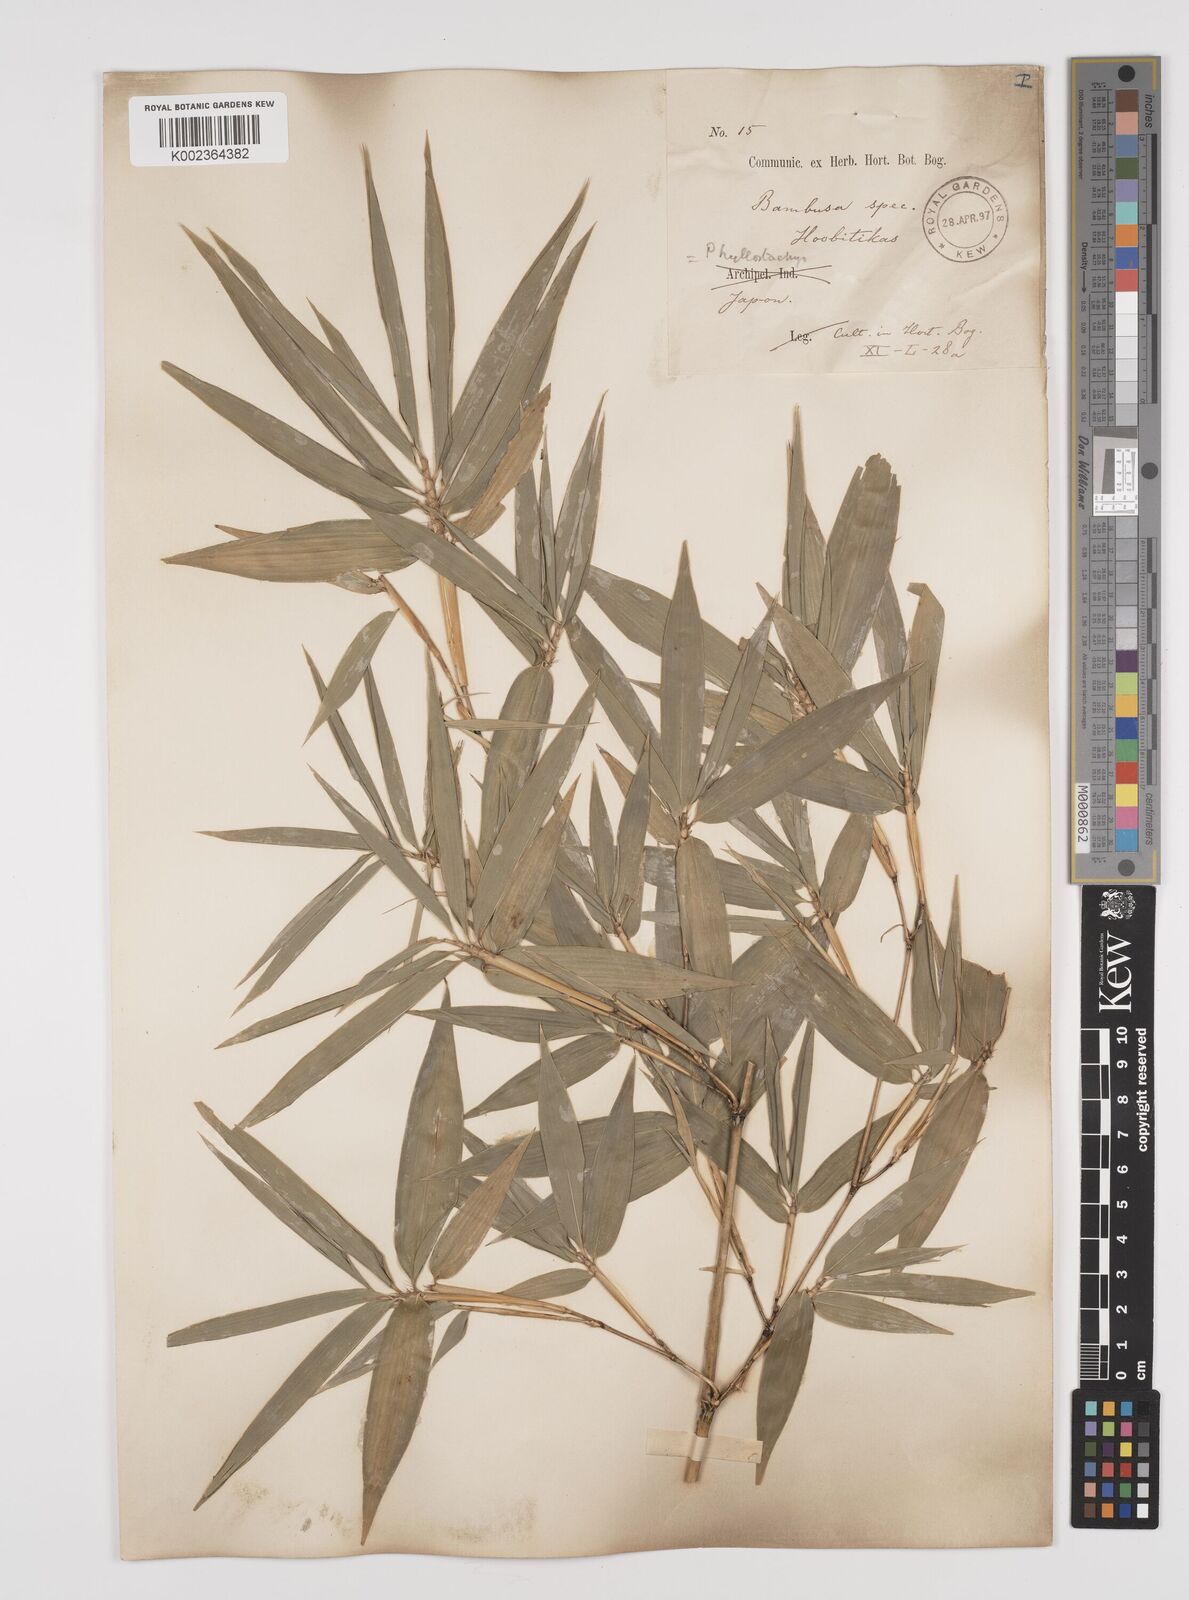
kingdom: Plantae
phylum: Tracheophyta
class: Liliopsida
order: Poales
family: Poaceae
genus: Phyllostachys
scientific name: Phyllostachys
